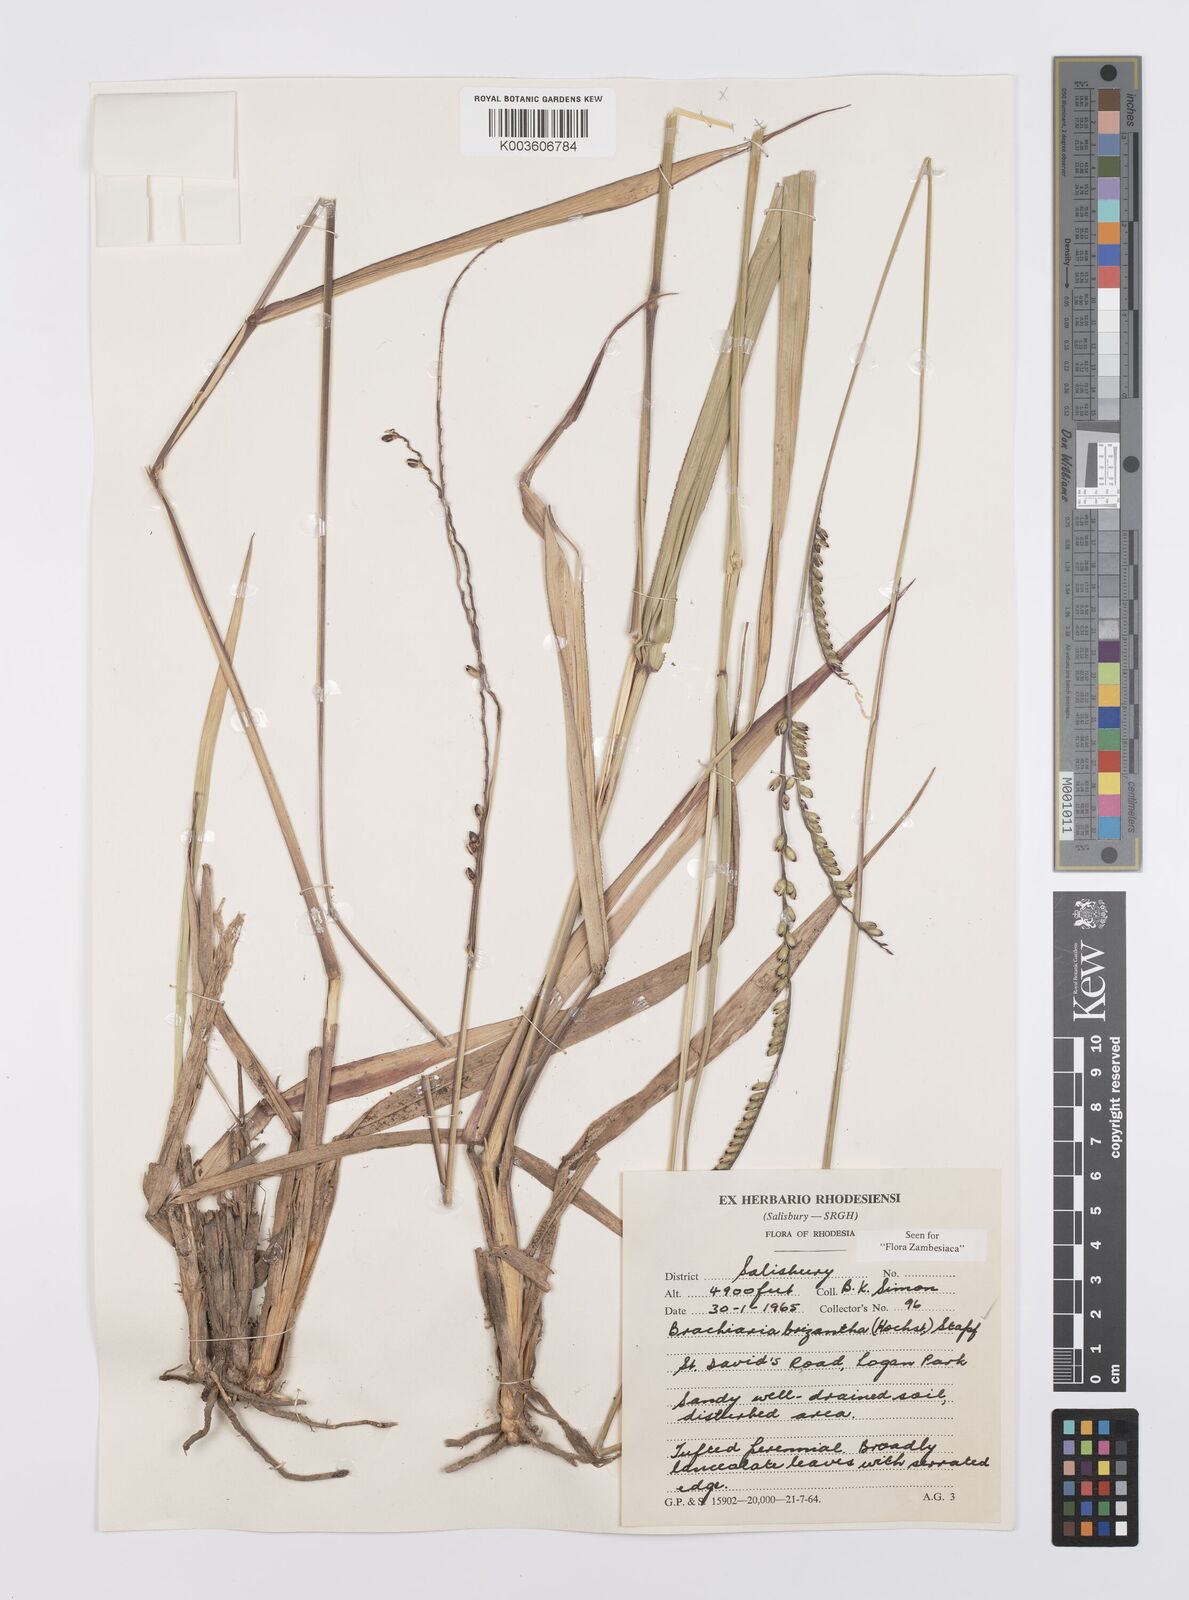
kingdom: Plantae
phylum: Tracheophyta
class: Liliopsida
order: Poales
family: Poaceae
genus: Urochloa
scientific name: Urochloa brizantha
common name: Palisade signalgrass
